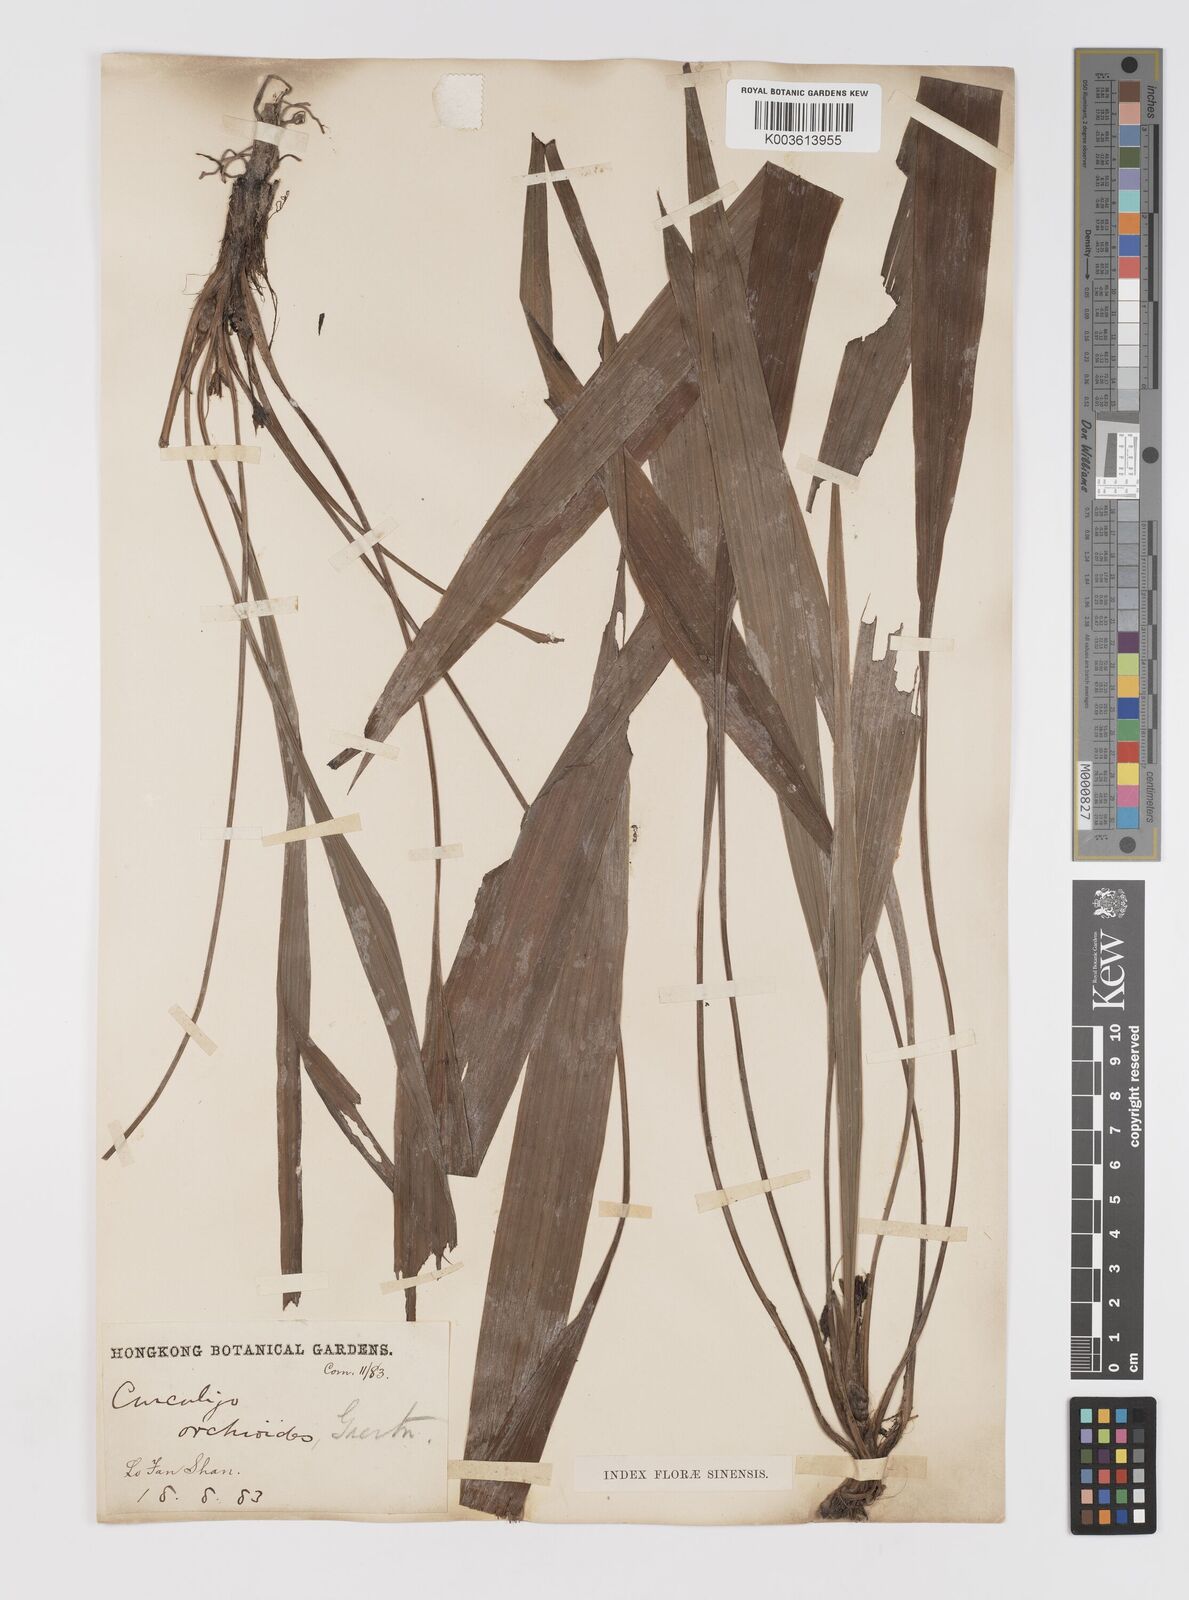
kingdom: Plantae
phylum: Tracheophyta
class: Liliopsida
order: Asparagales
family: Hypoxidaceae
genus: Curculigo
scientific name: Curculigo orchioides
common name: Golden eye-grass
